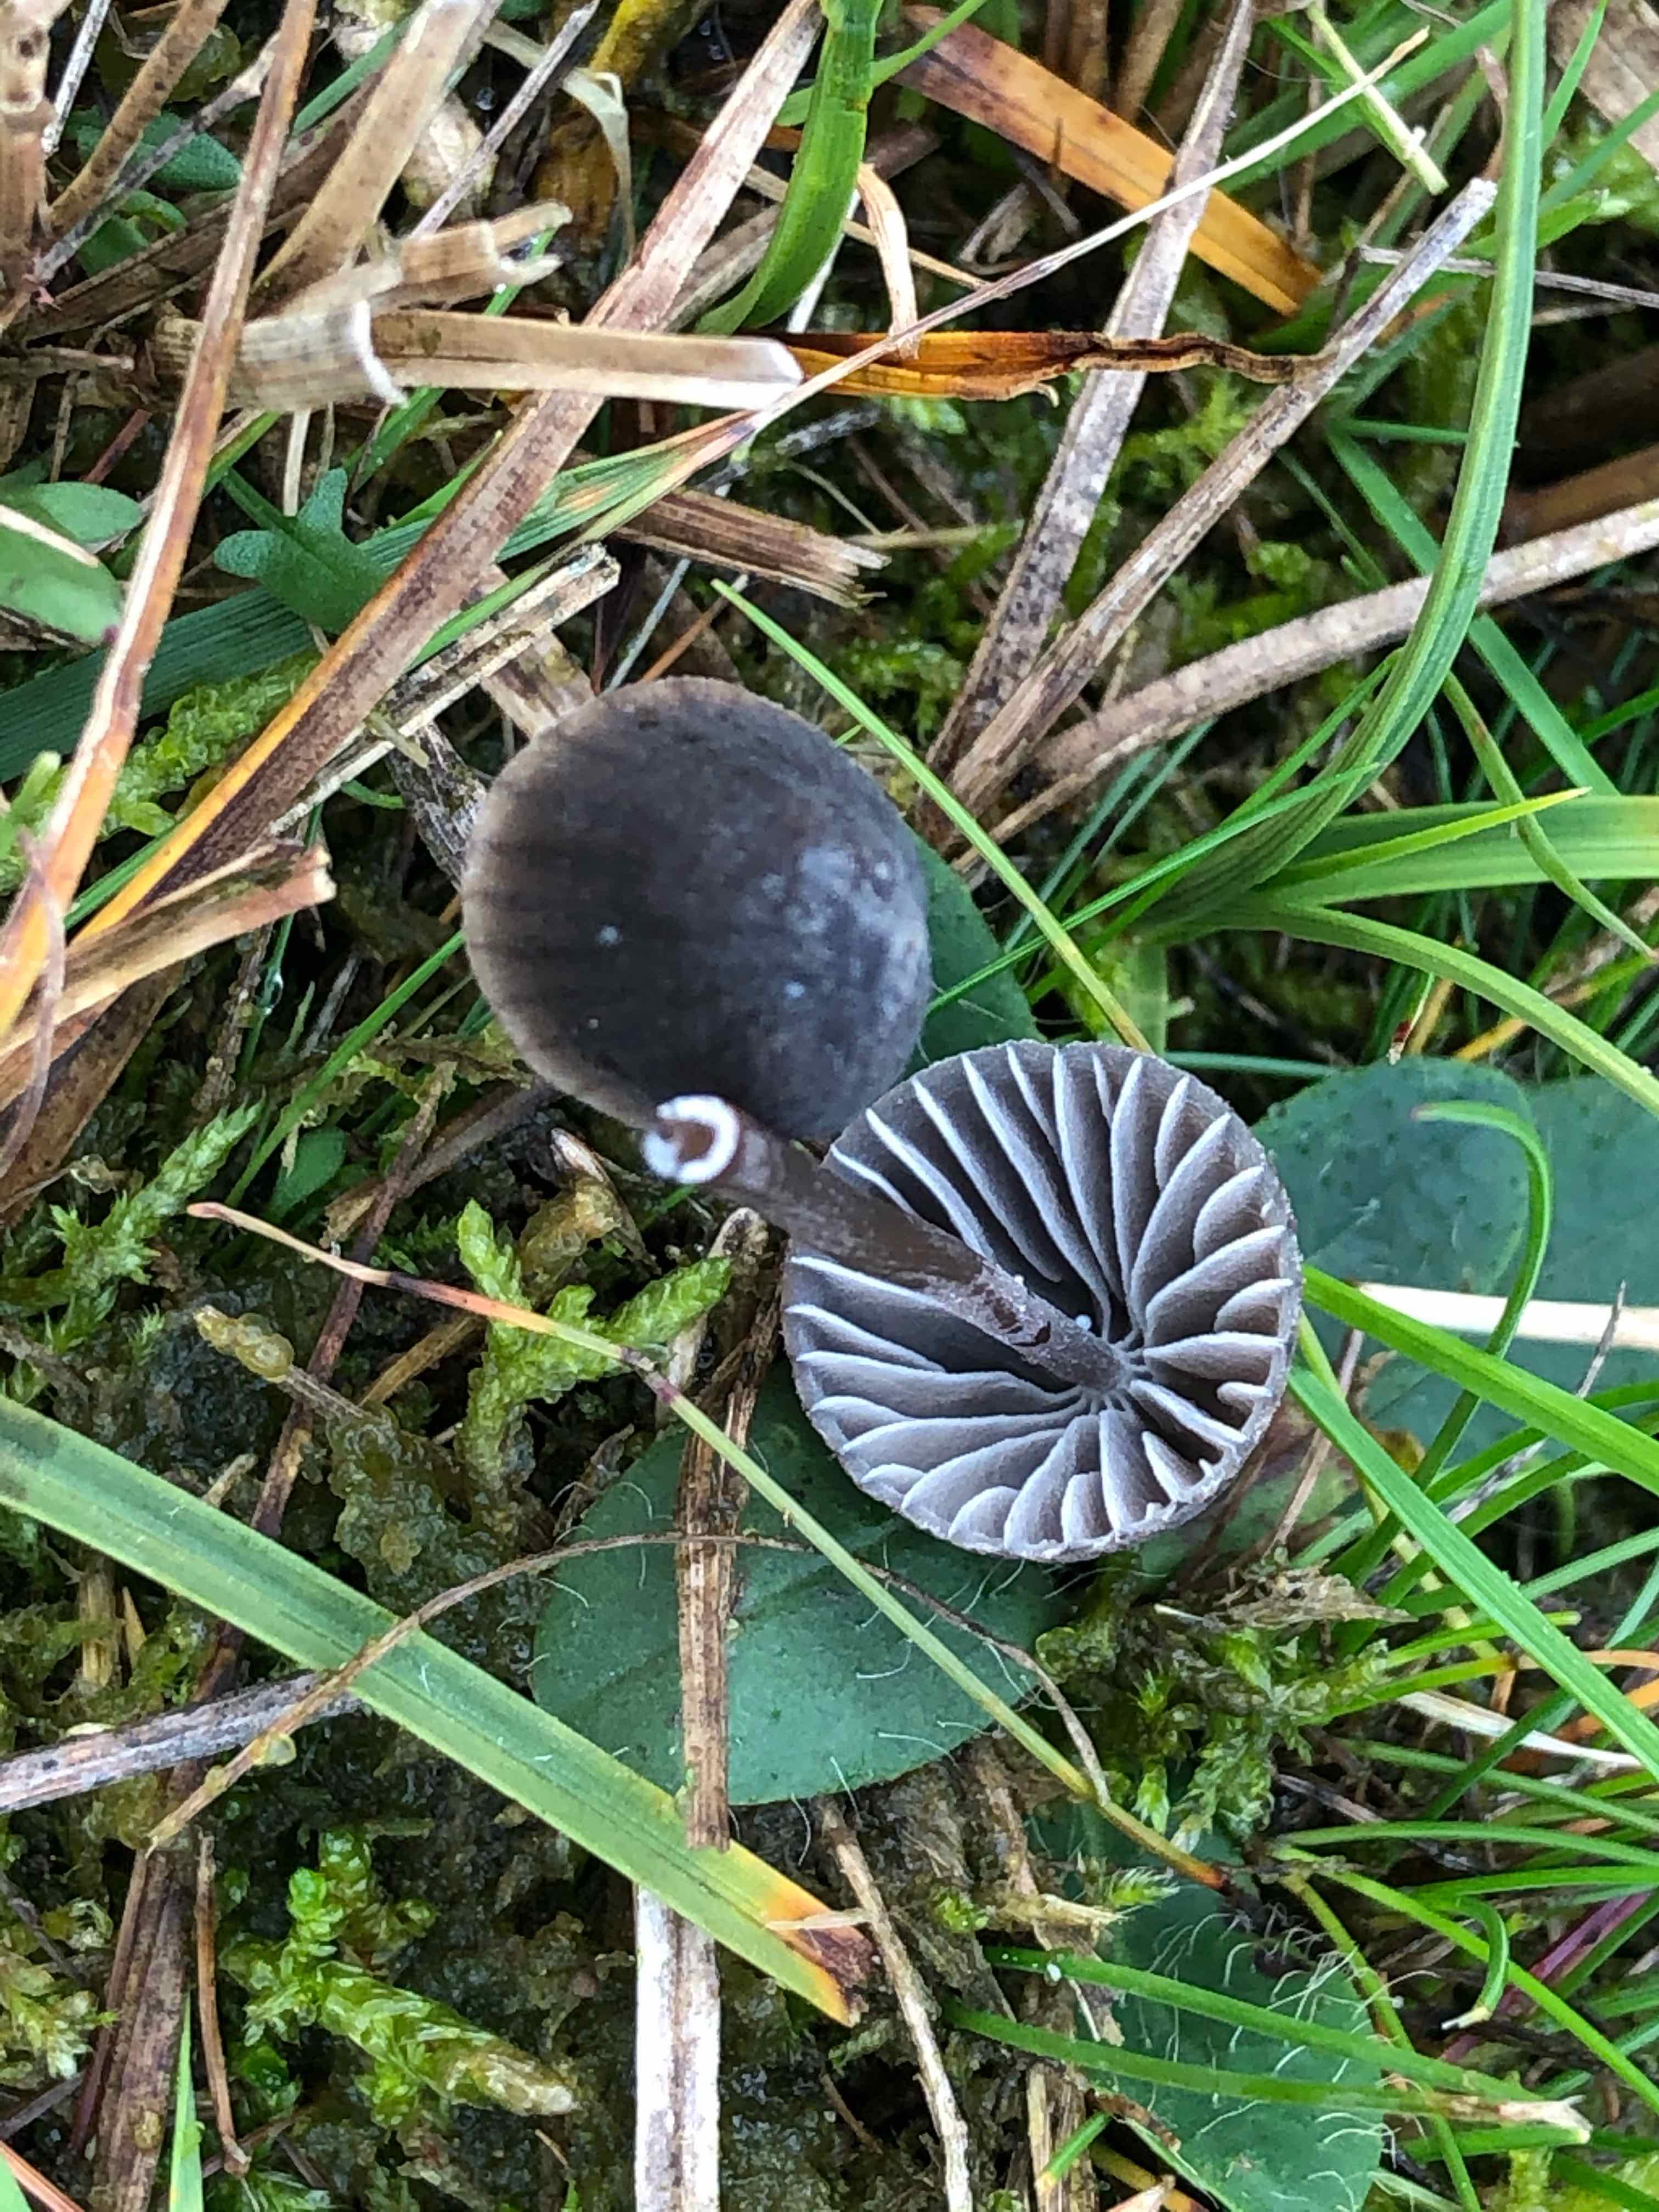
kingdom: Fungi
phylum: Basidiomycota
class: Agaricomycetes
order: Agaricales
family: Mycenaceae
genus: Mycena
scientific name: Mycena galopus
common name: hvidmælket huesvamp
